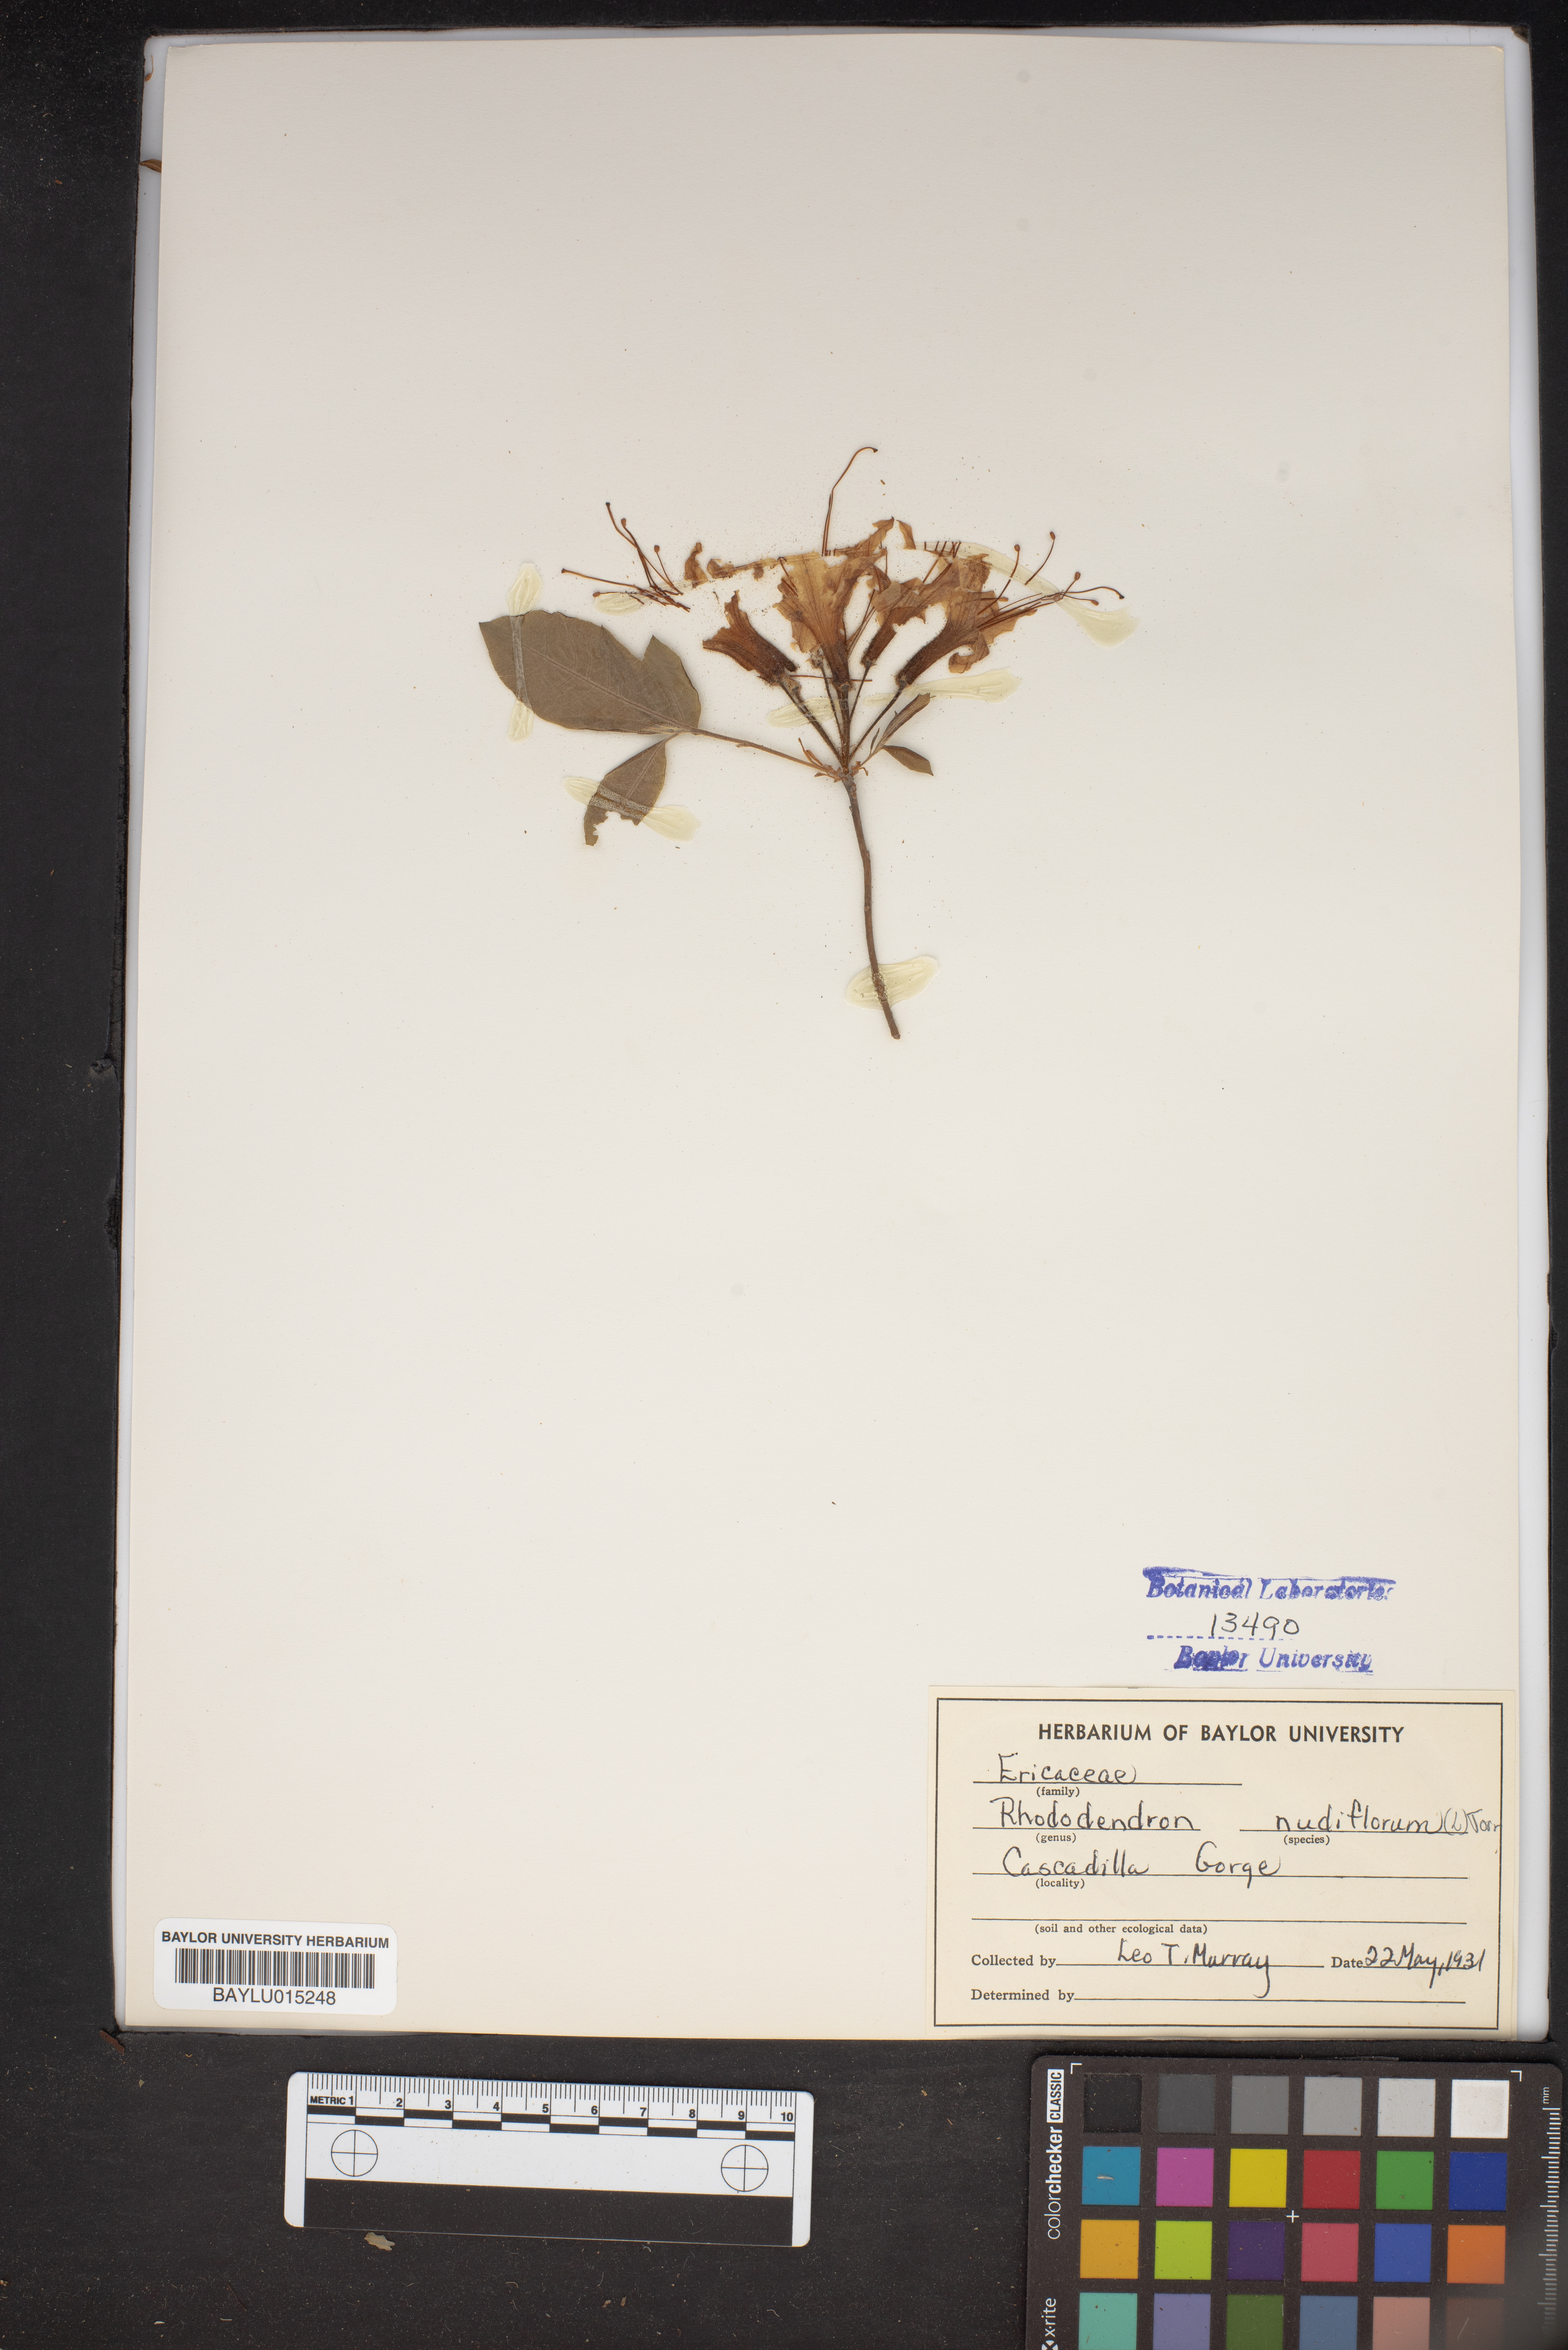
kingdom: Plantae
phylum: Tracheophyta
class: Magnoliopsida
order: Ericales
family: Ericaceae
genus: Rhododendron
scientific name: Rhododendron periclymenoides
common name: Election-pink
